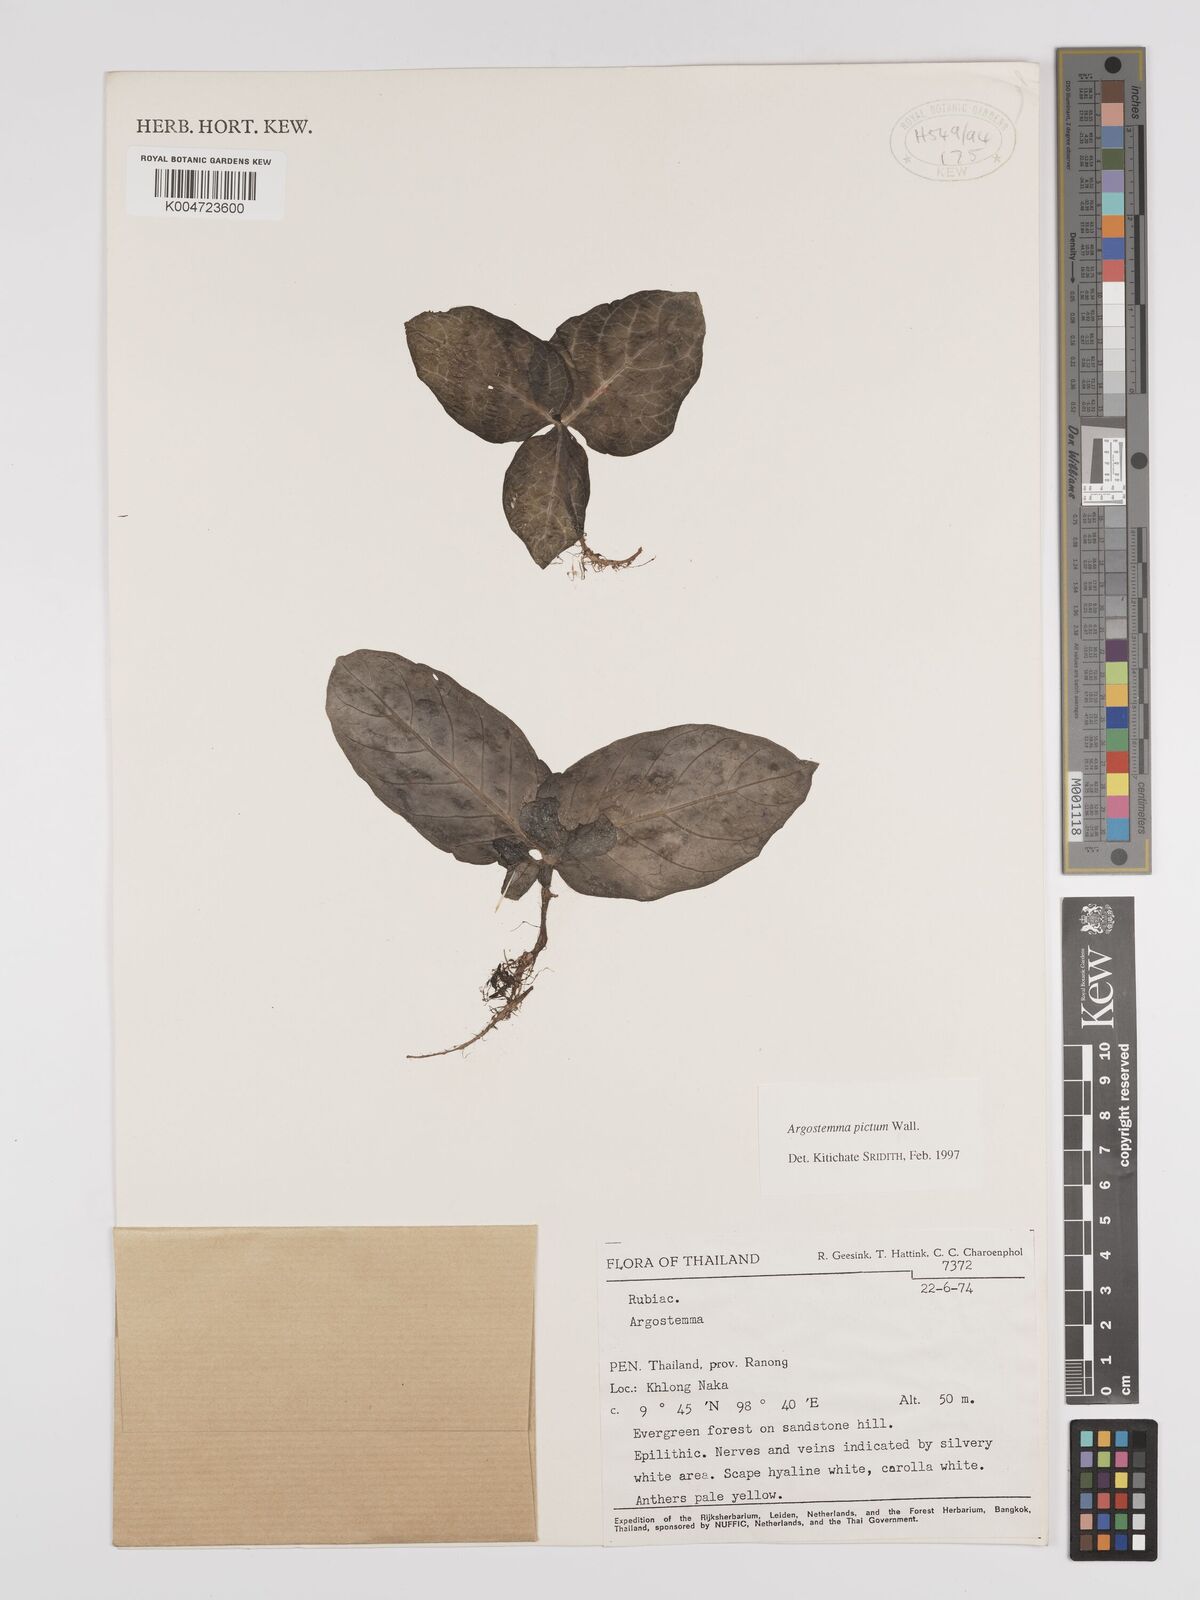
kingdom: Plantae
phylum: Tracheophyta
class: Magnoliopsida
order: Gentianales
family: Rubiaceae
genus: Argostemma
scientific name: Argostemma
